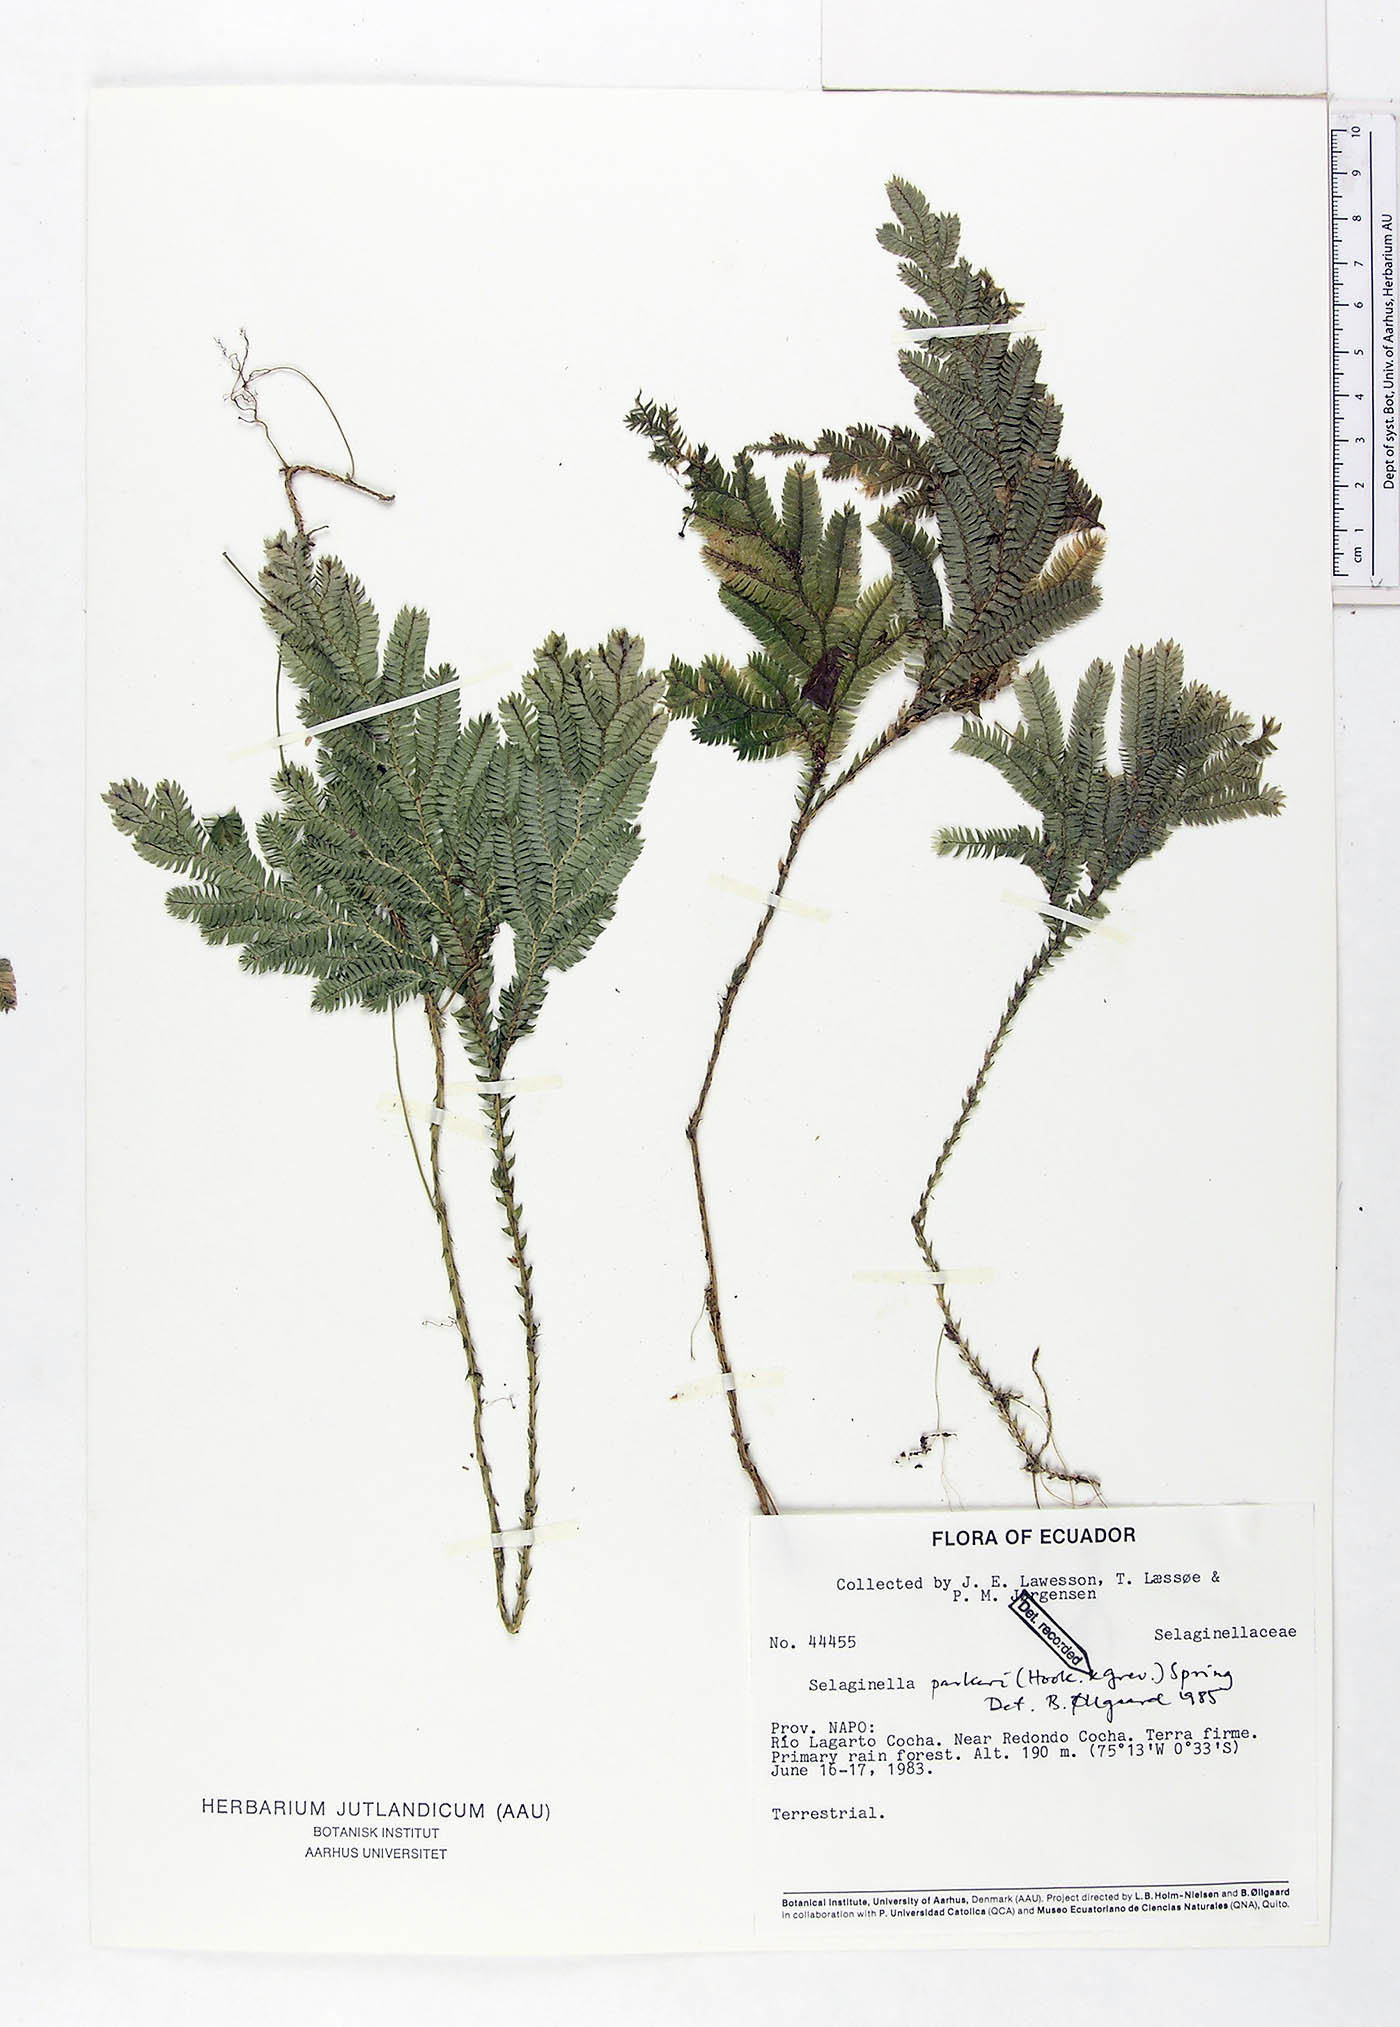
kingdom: Plantae
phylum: Tracheophyta
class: Lycopodiopsida
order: Selaginellales
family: Selaginellaceae
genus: Selaginella
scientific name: Selaginella parkeri
